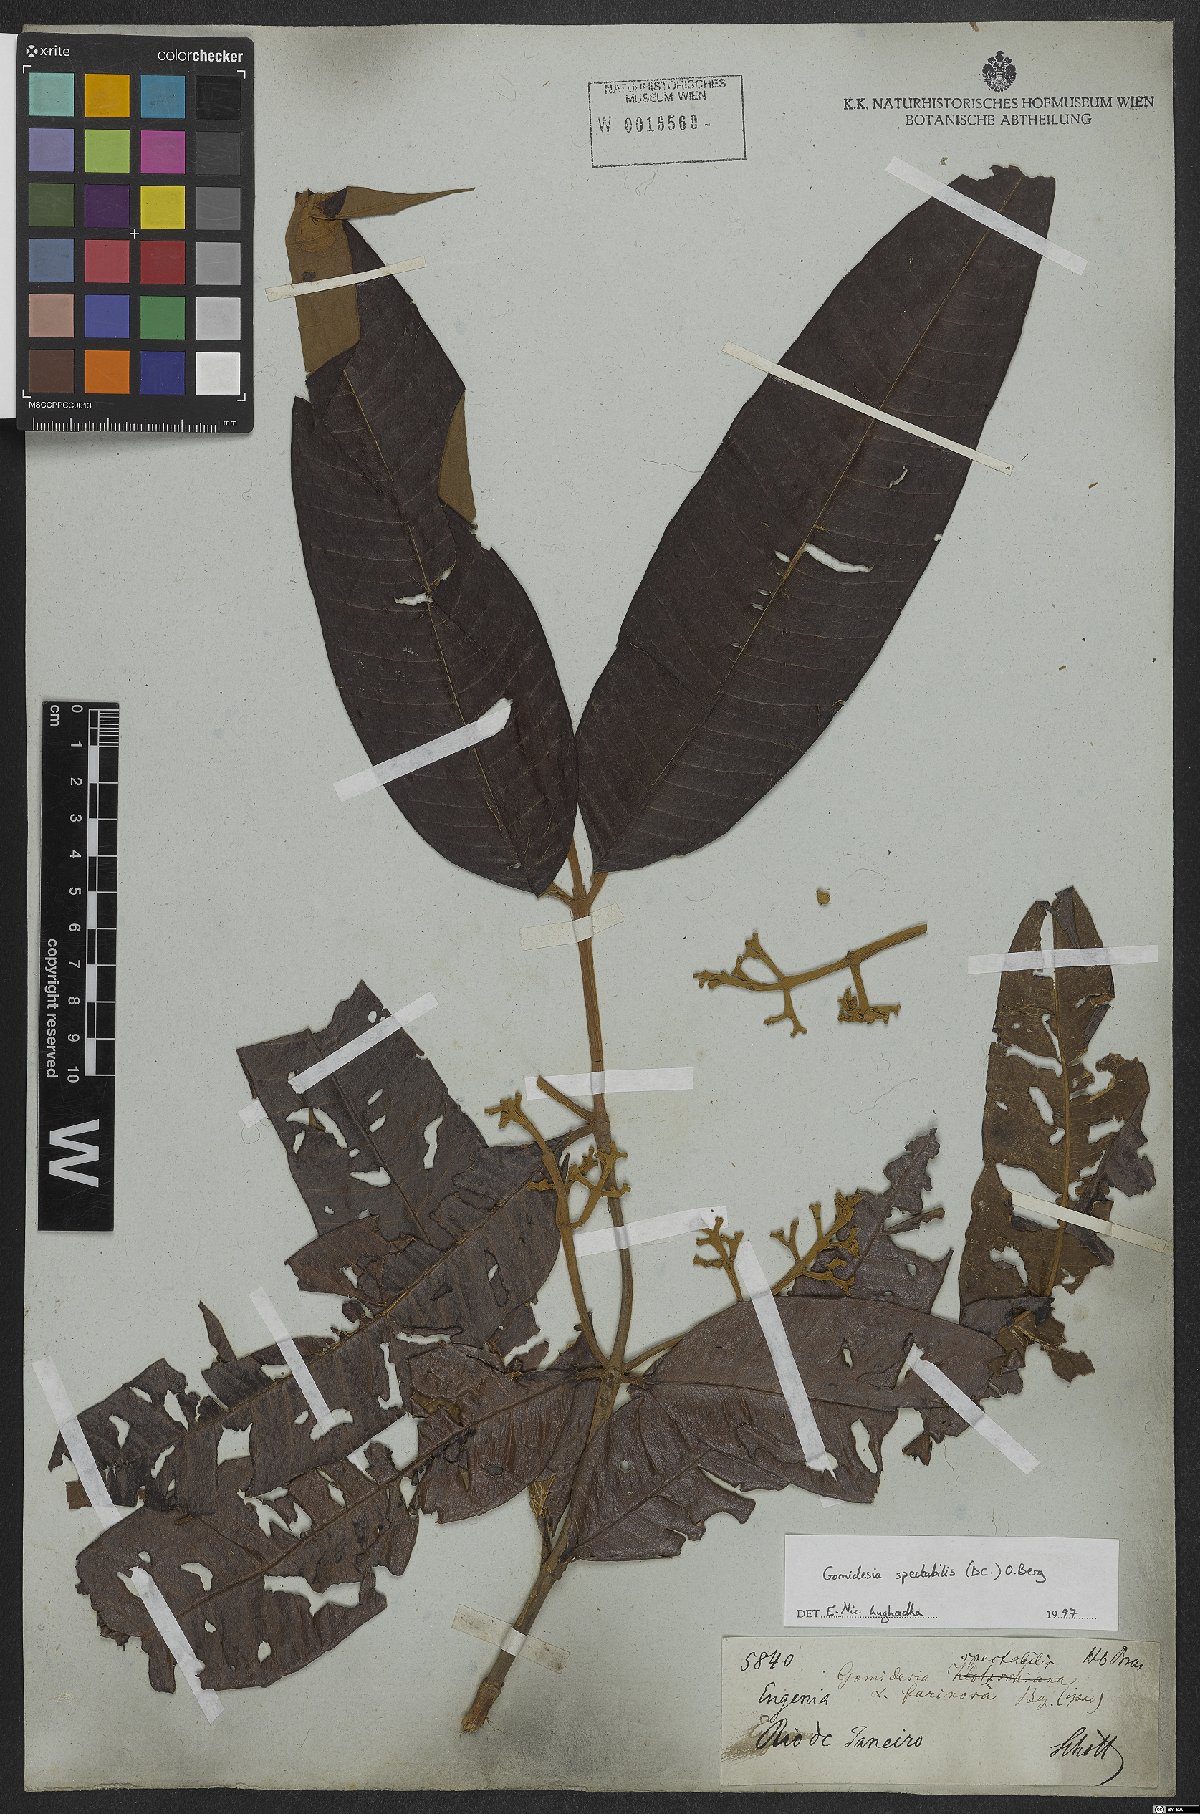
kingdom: Plantae
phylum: Tracheophyta
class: Magnoliopsida
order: Myrtales
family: Myrtaceae
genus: Myrcia
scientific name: Myrcia spectabilis
